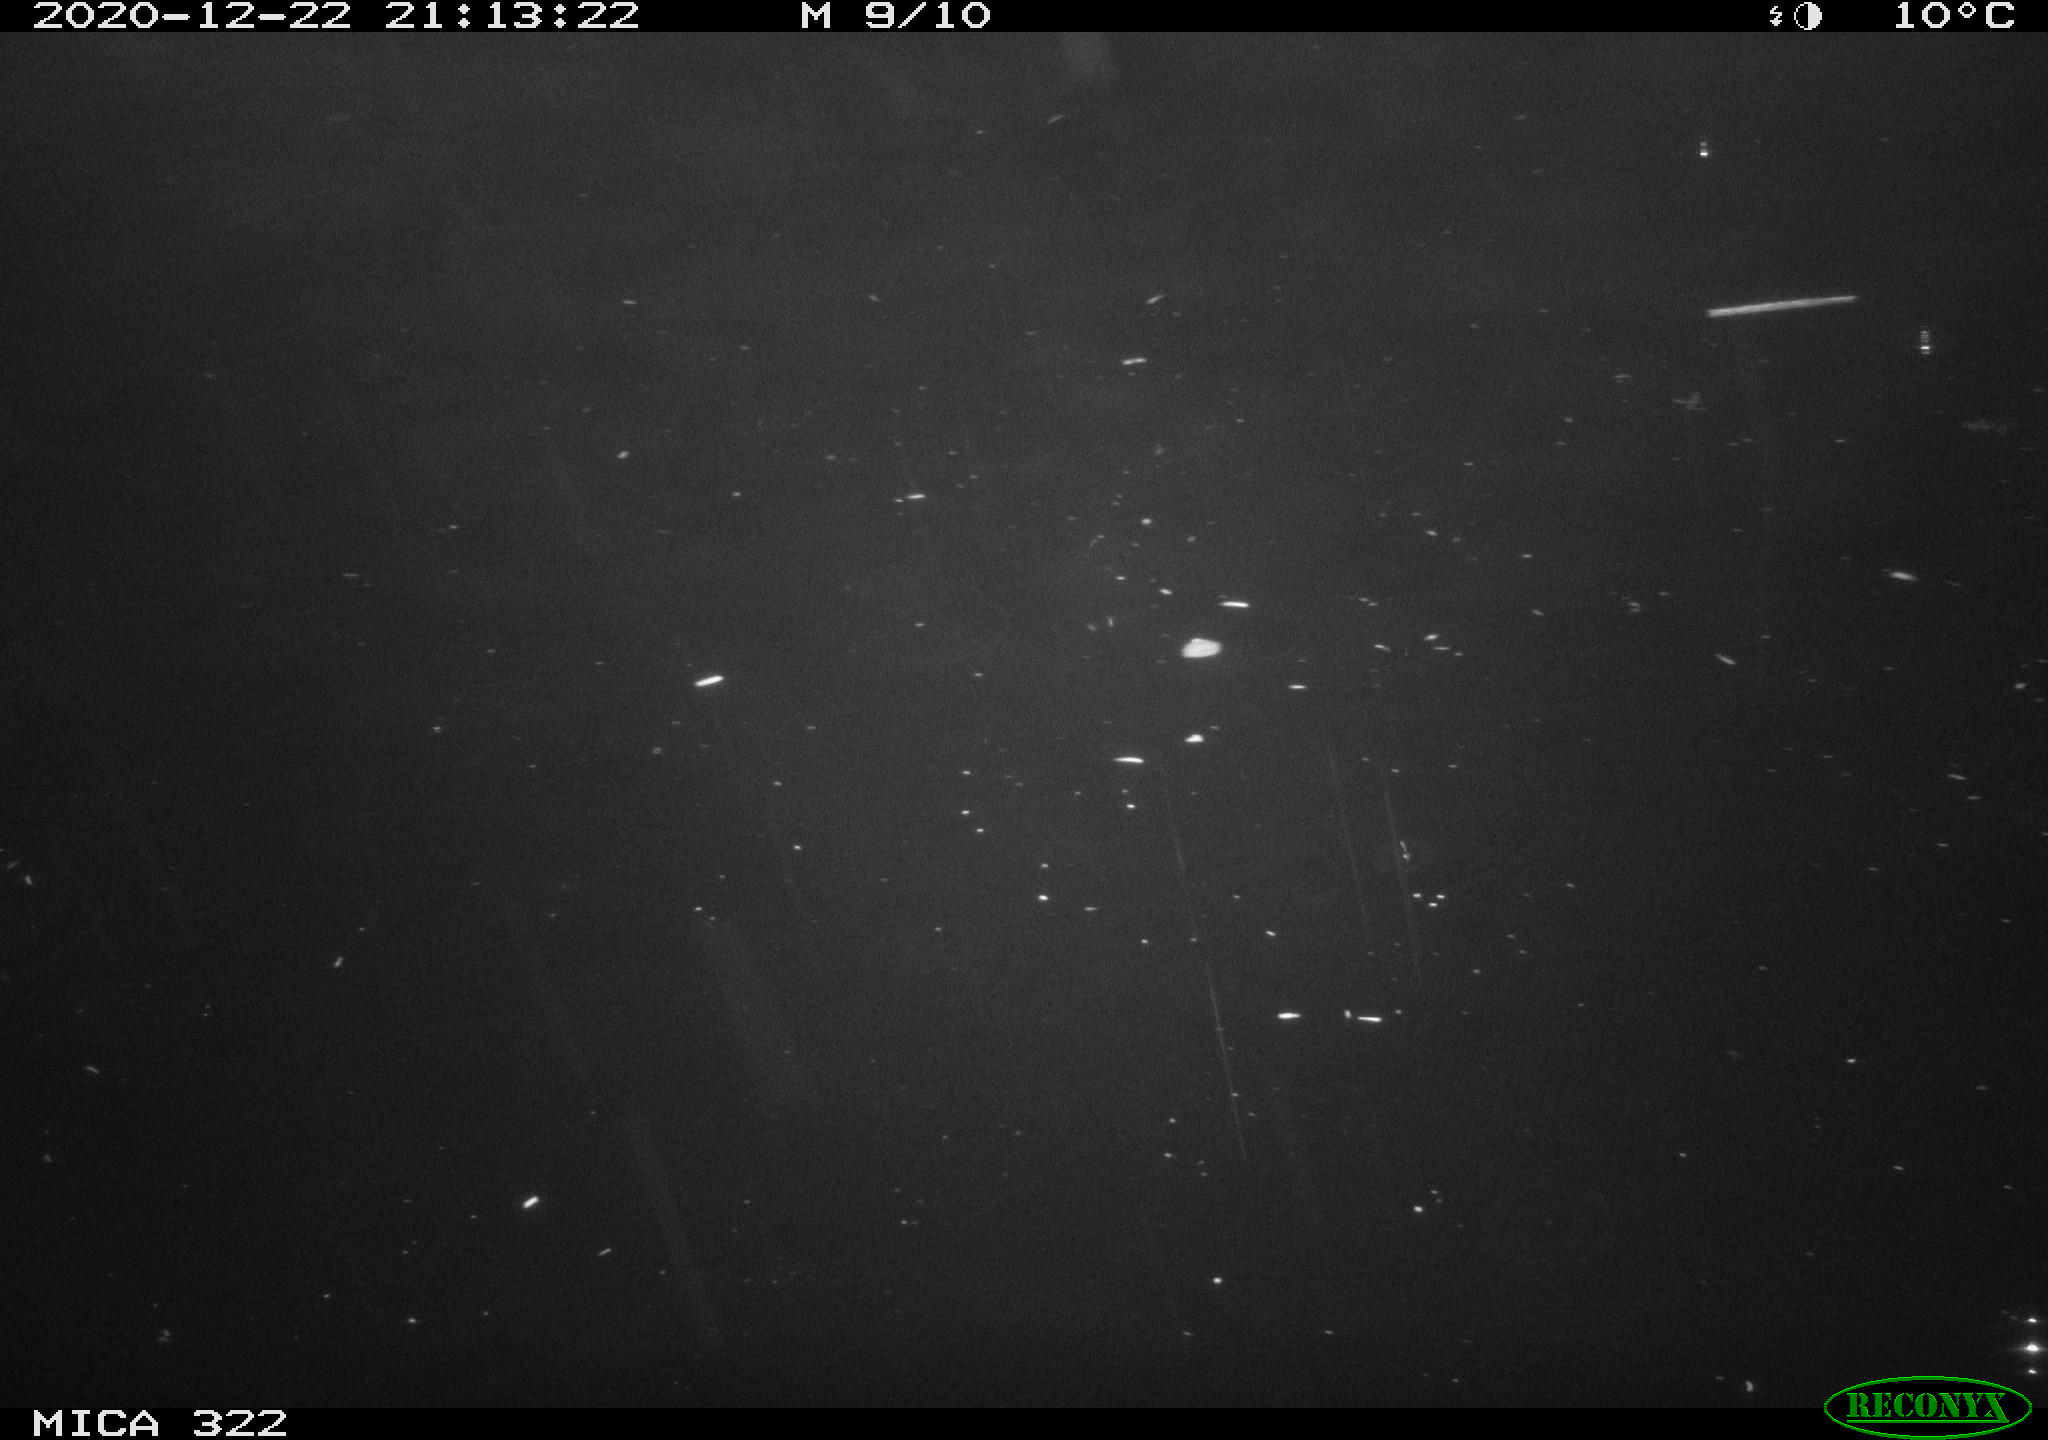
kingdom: Animalia
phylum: Chordata
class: Mammalia
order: Rodentia
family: Muridae
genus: Rattus
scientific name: Rattus norvegicus
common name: Brown rat
